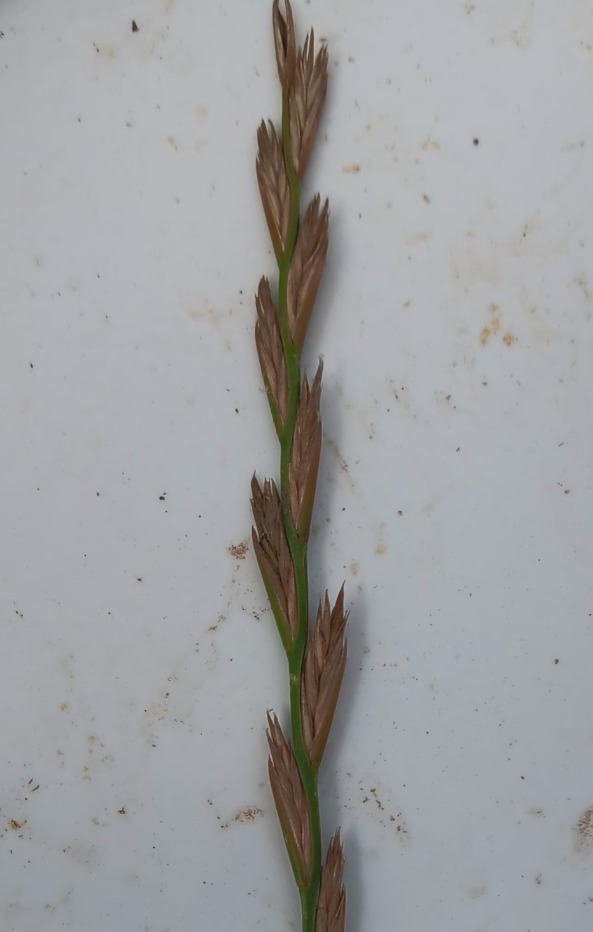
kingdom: Plantae
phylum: Tracheophyta
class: Liliopsida
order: Poales
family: Poaceae
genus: Lolium
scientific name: Lolium perenne
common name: Almindelig rajgræs
